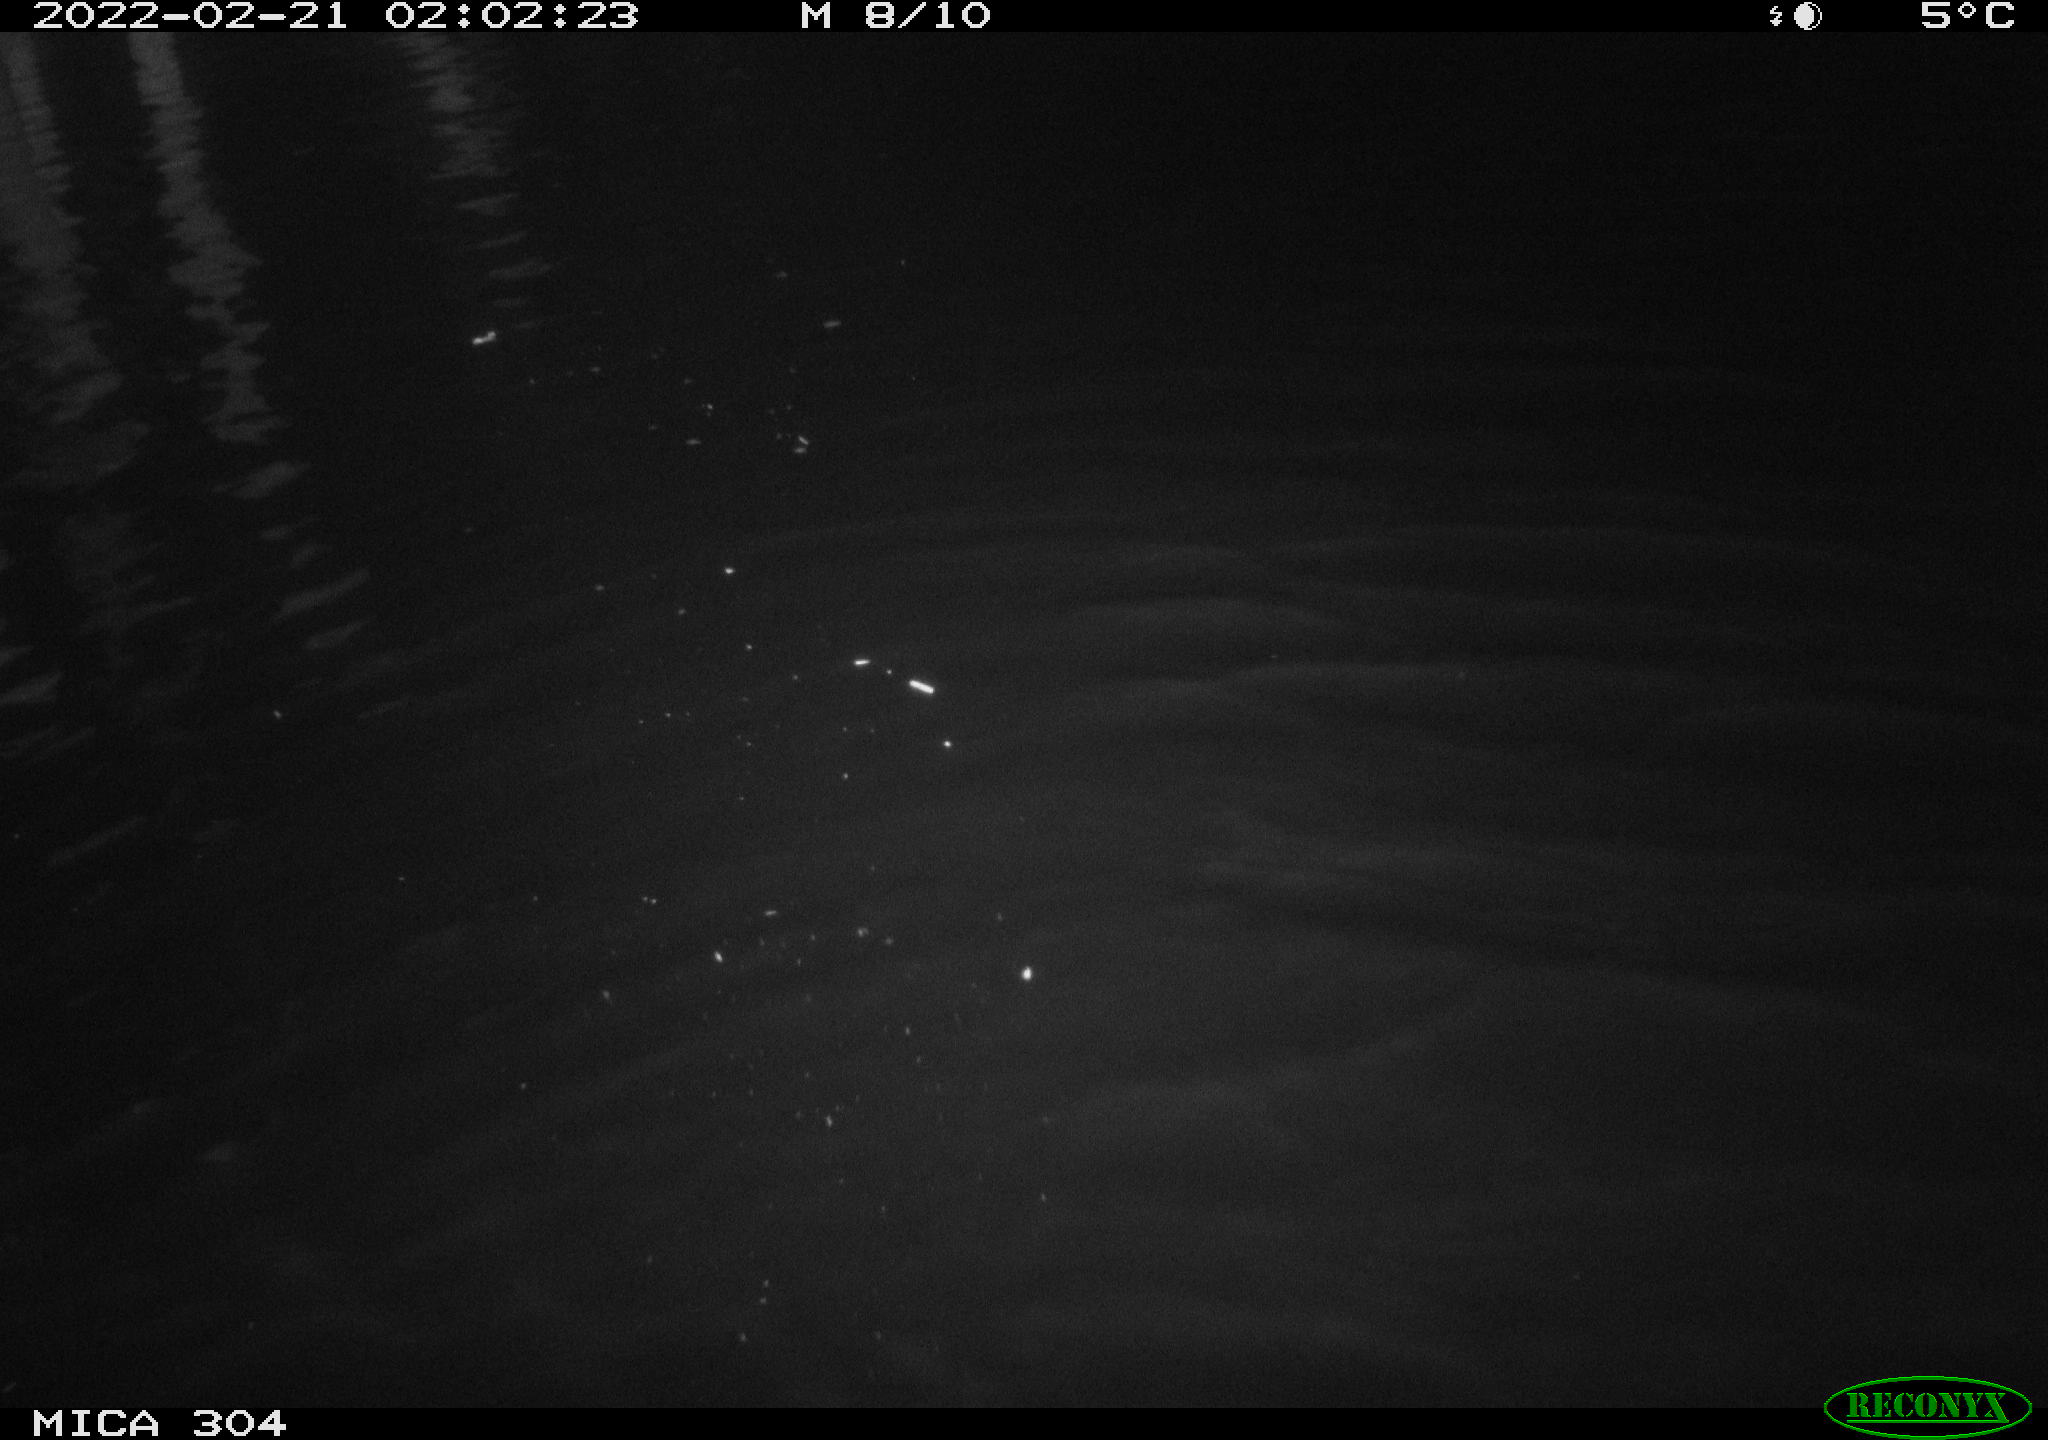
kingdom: Animalia
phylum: Chordata
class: Mammalia
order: Rodentia
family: Muridae
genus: Rattus
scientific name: Rattus norvegicus
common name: Brown rat
